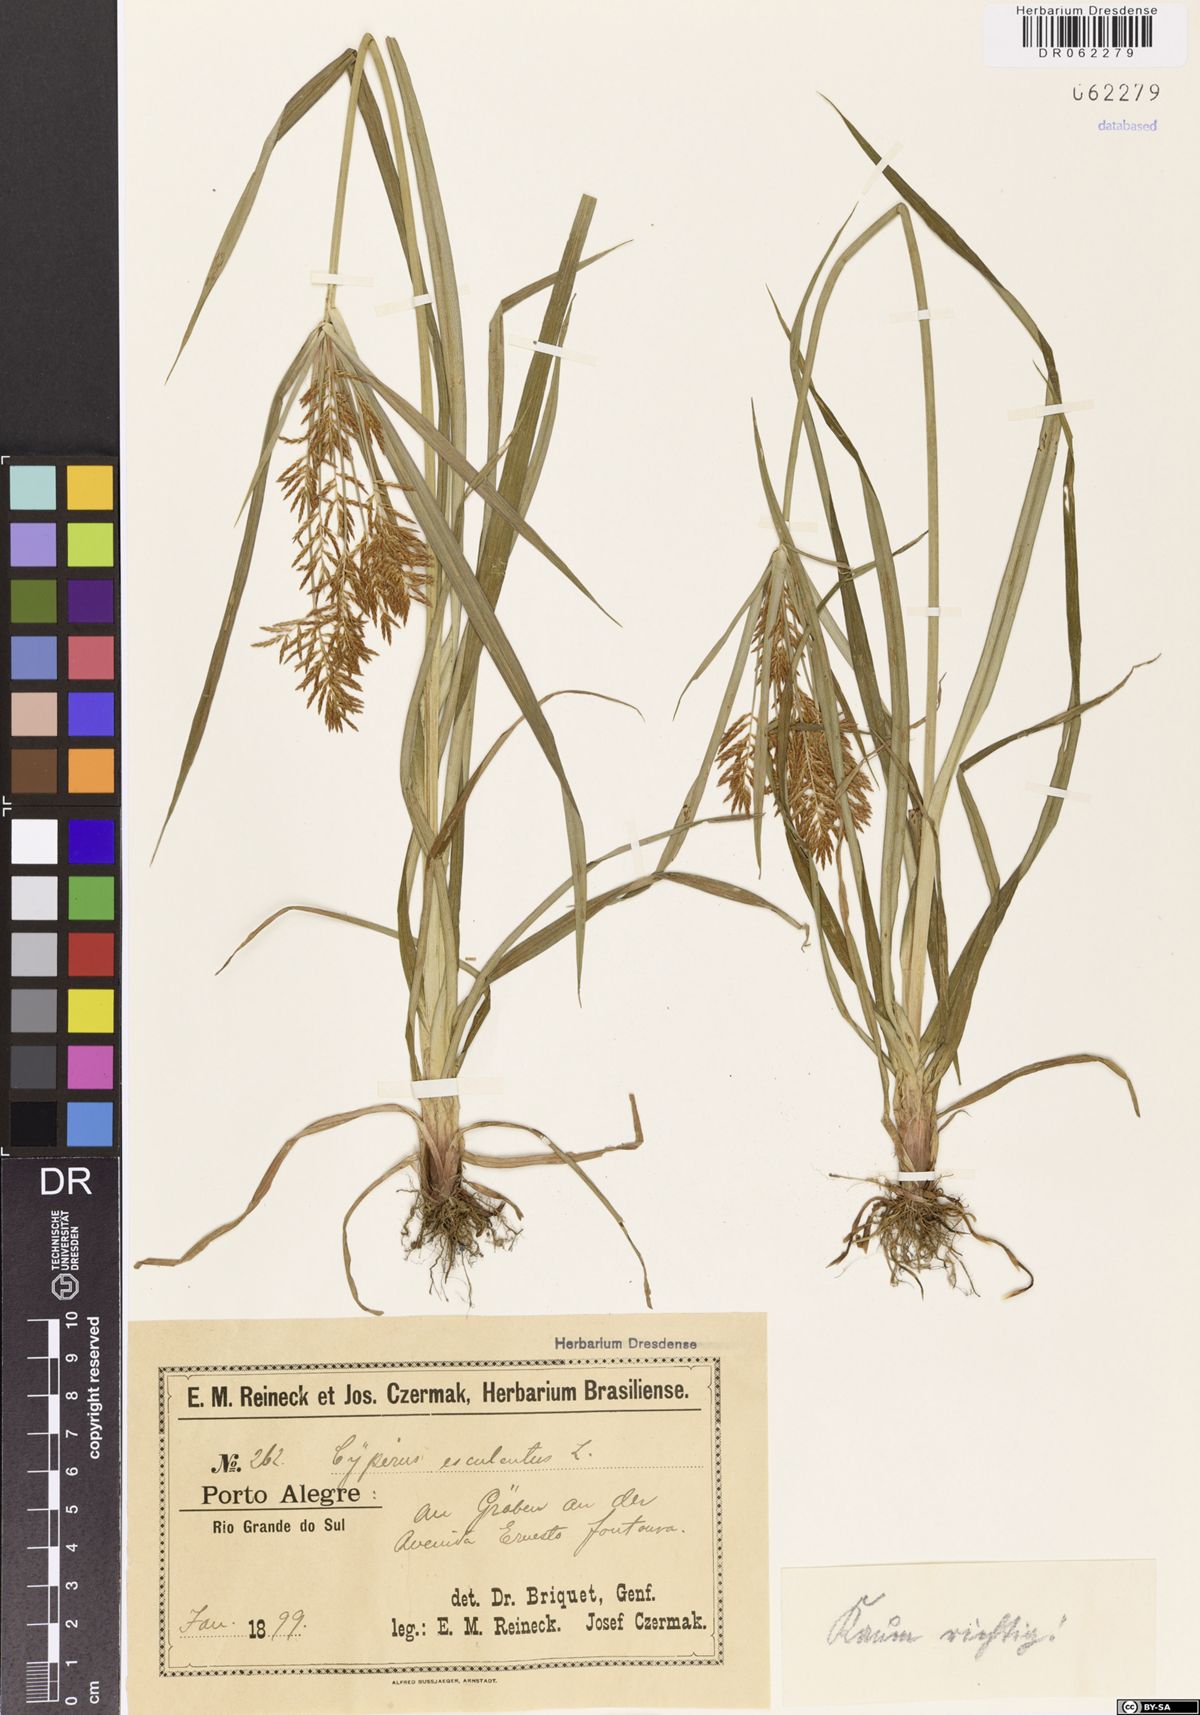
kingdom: Plantae
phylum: Tracheophyta
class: Liliopsida
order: Poales
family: Cyperaceae
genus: Cyperus
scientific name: Cyperus esculentus
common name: Yellow nutsedge
